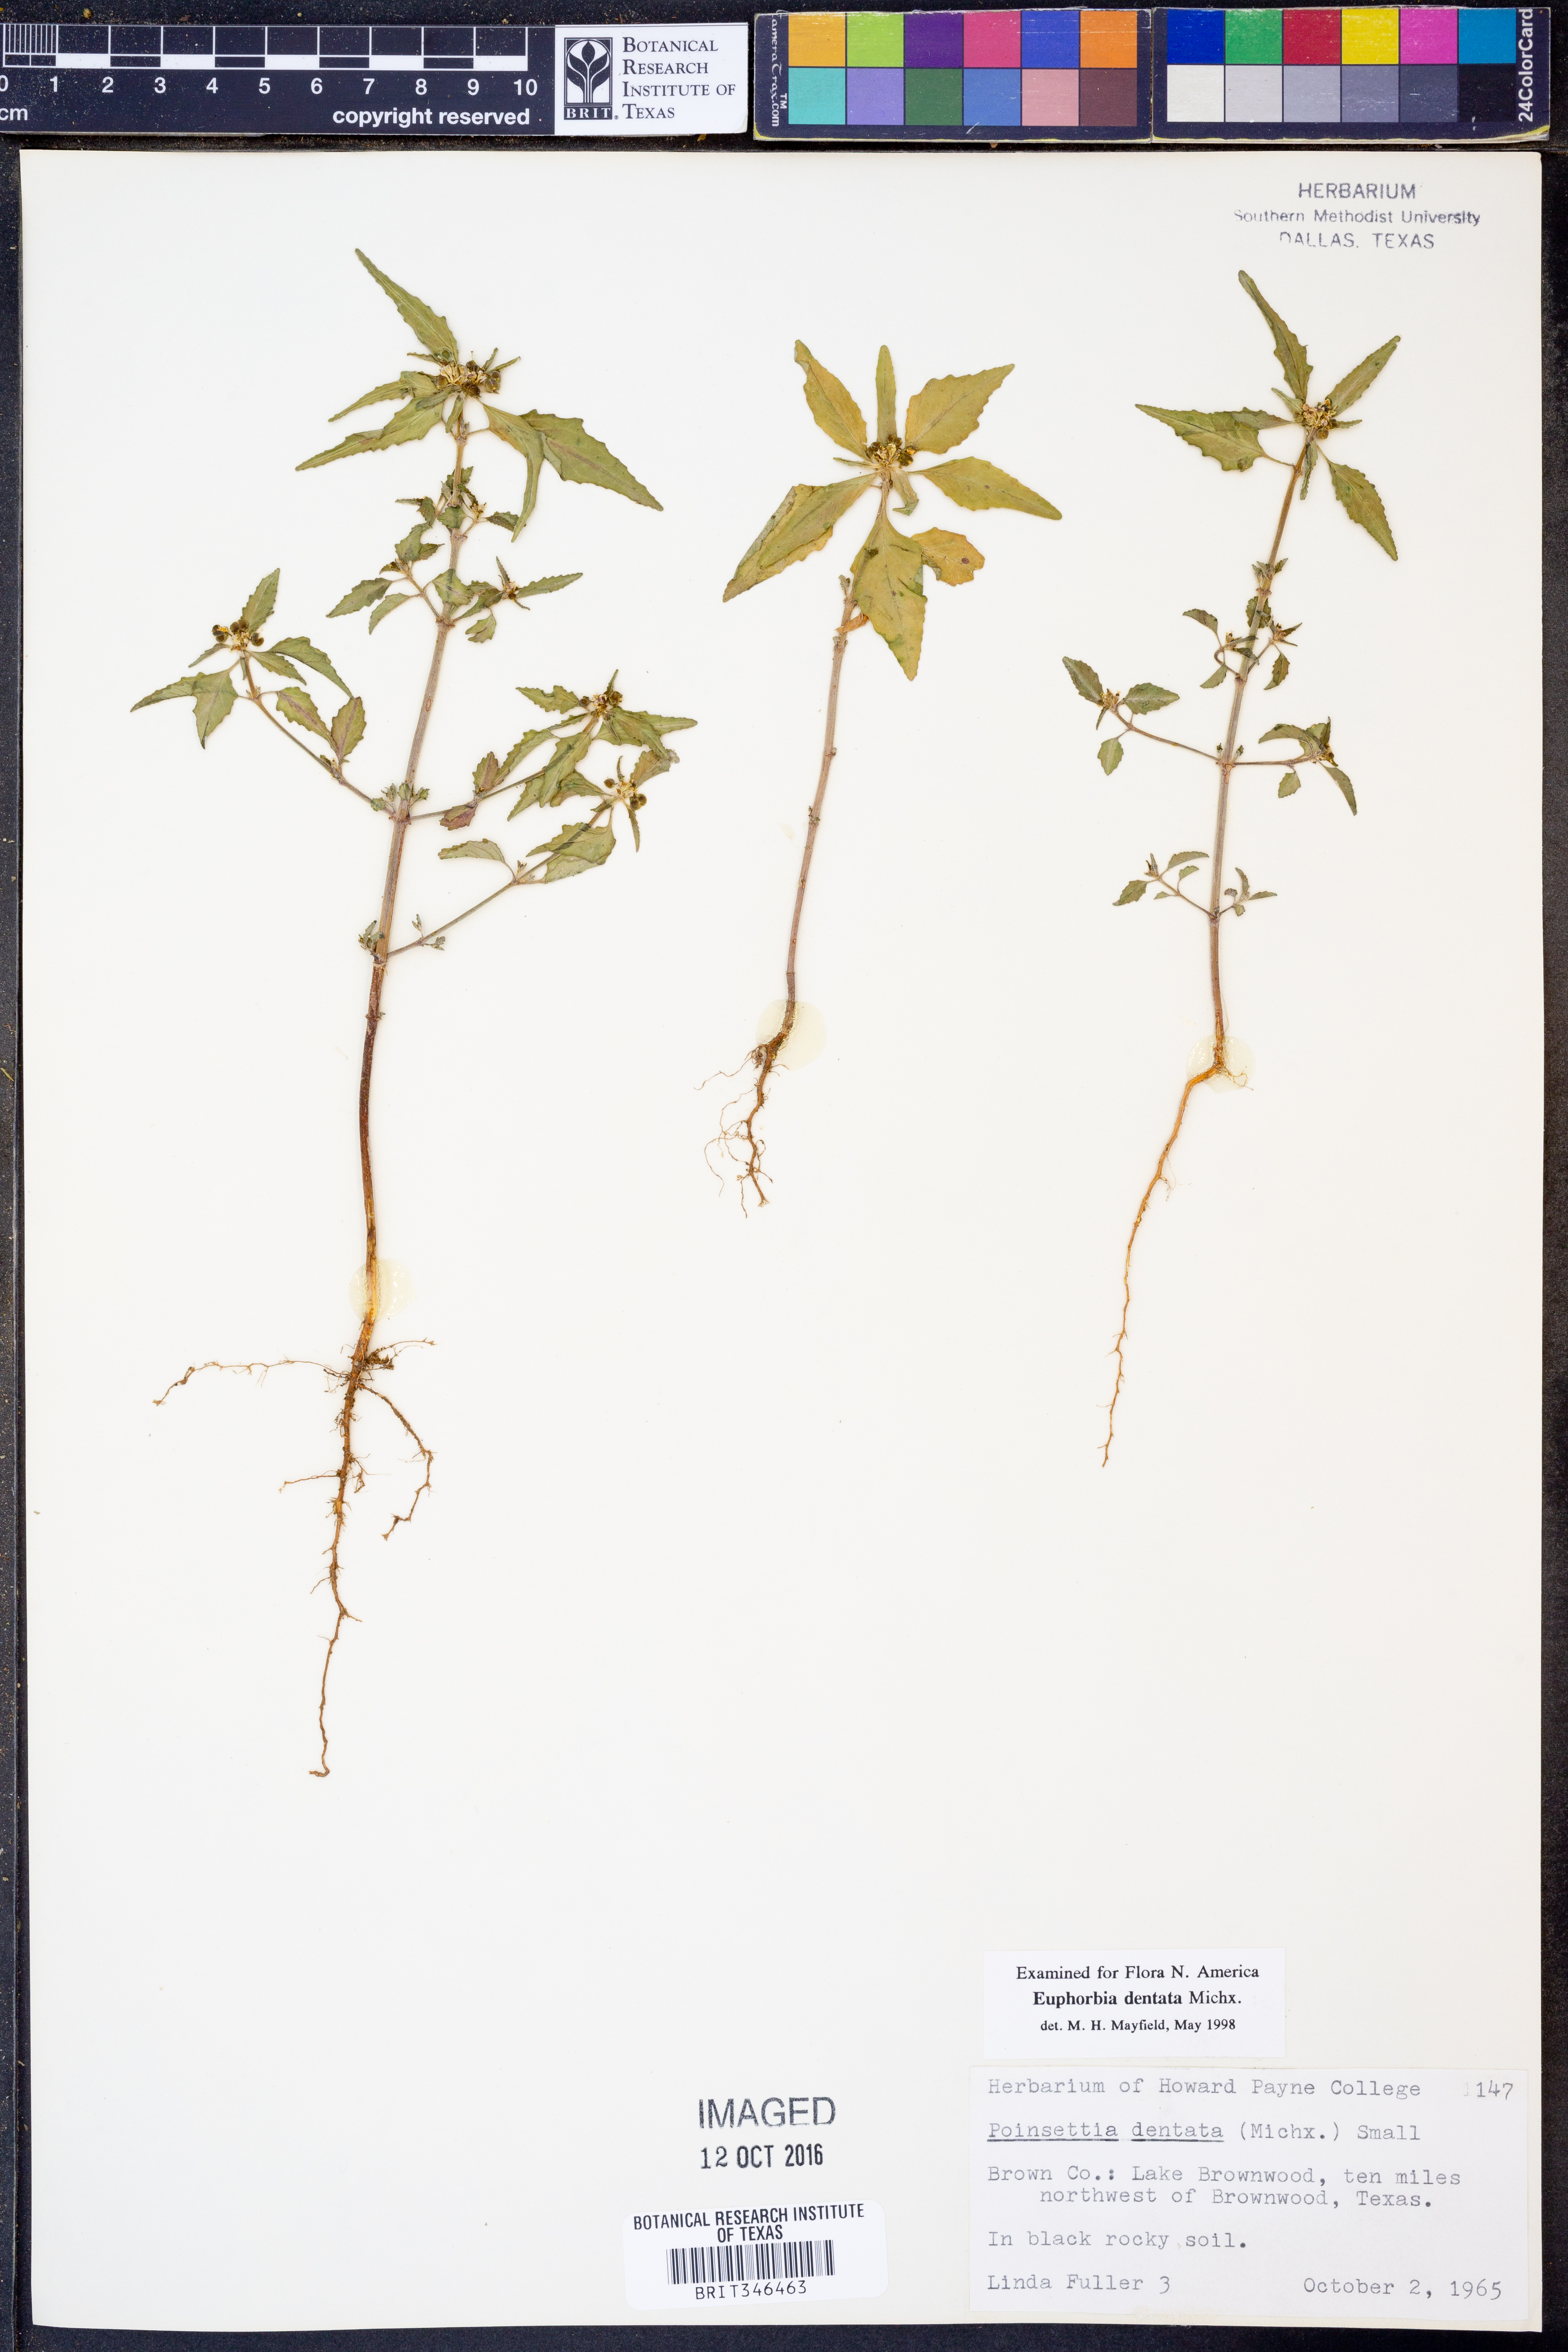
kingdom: Plantae
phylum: Tracheophyta
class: Magnoliopsida
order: Malpighiales
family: Euphorbiaceae
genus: Euphorbia
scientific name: Euphorbia dentata
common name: Dentate spurge
